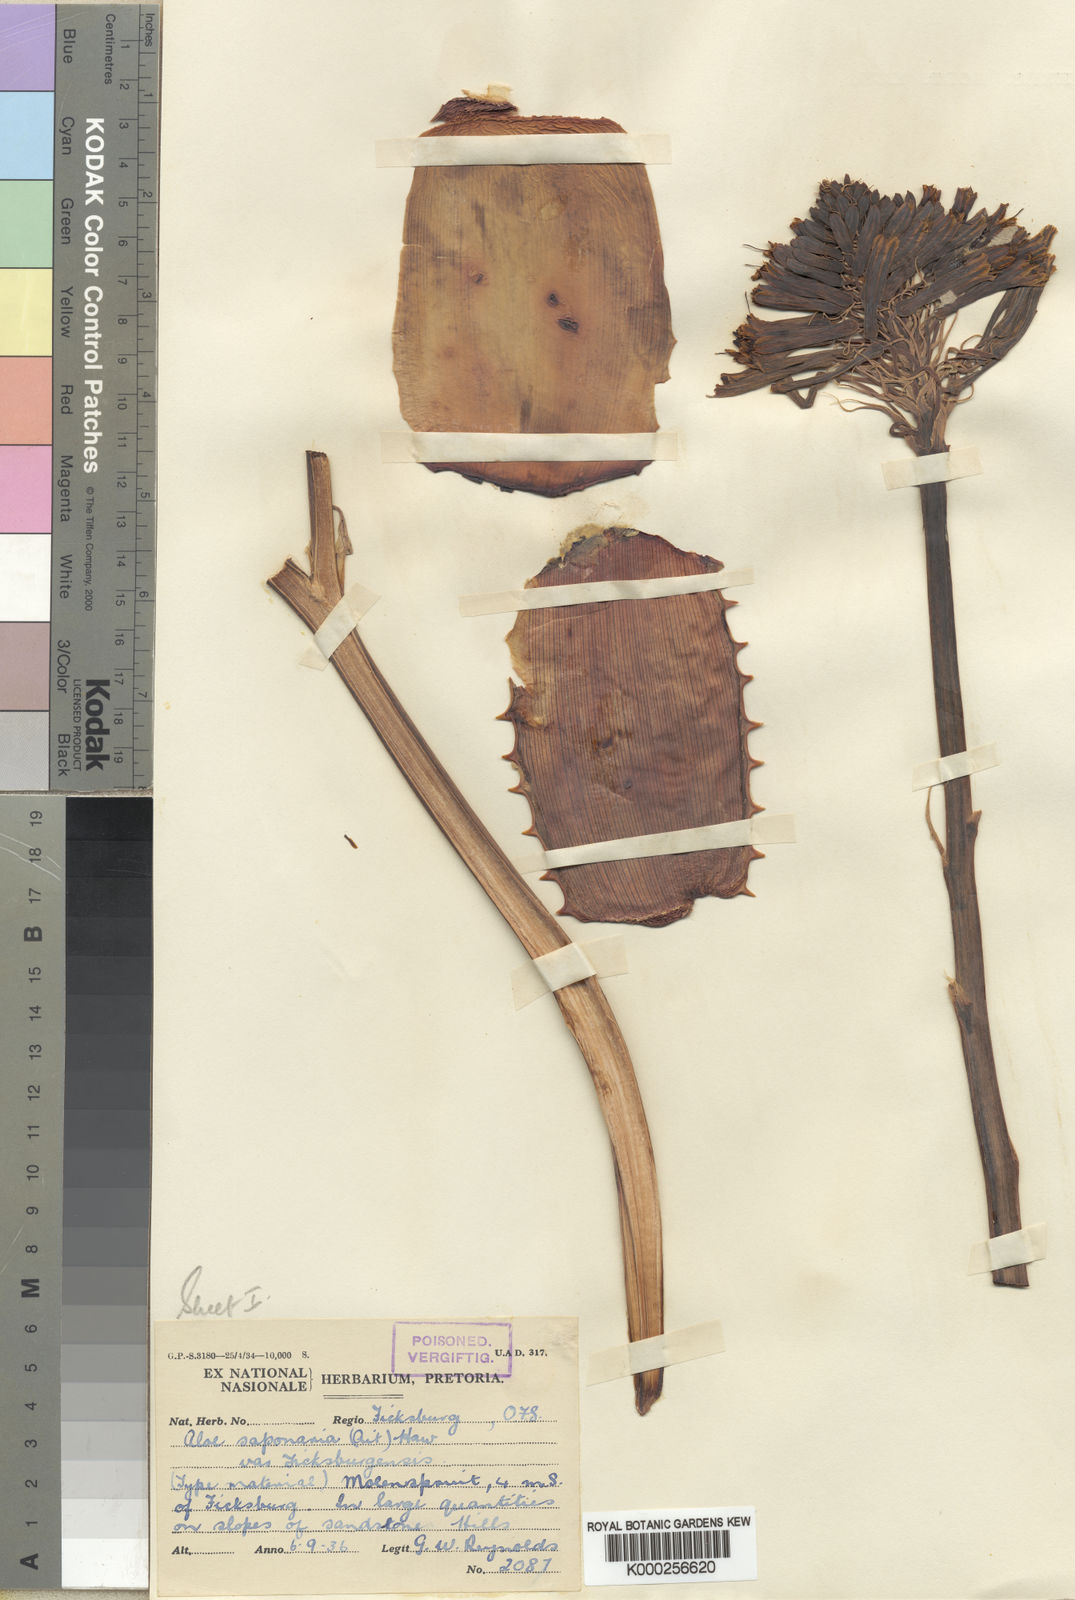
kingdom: Plantae
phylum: Tracheophyta
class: Liliopsida
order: Asparagales
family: Asphodelaceae
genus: Aloe
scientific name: Aloe maculata
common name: Broadleaf aloe
